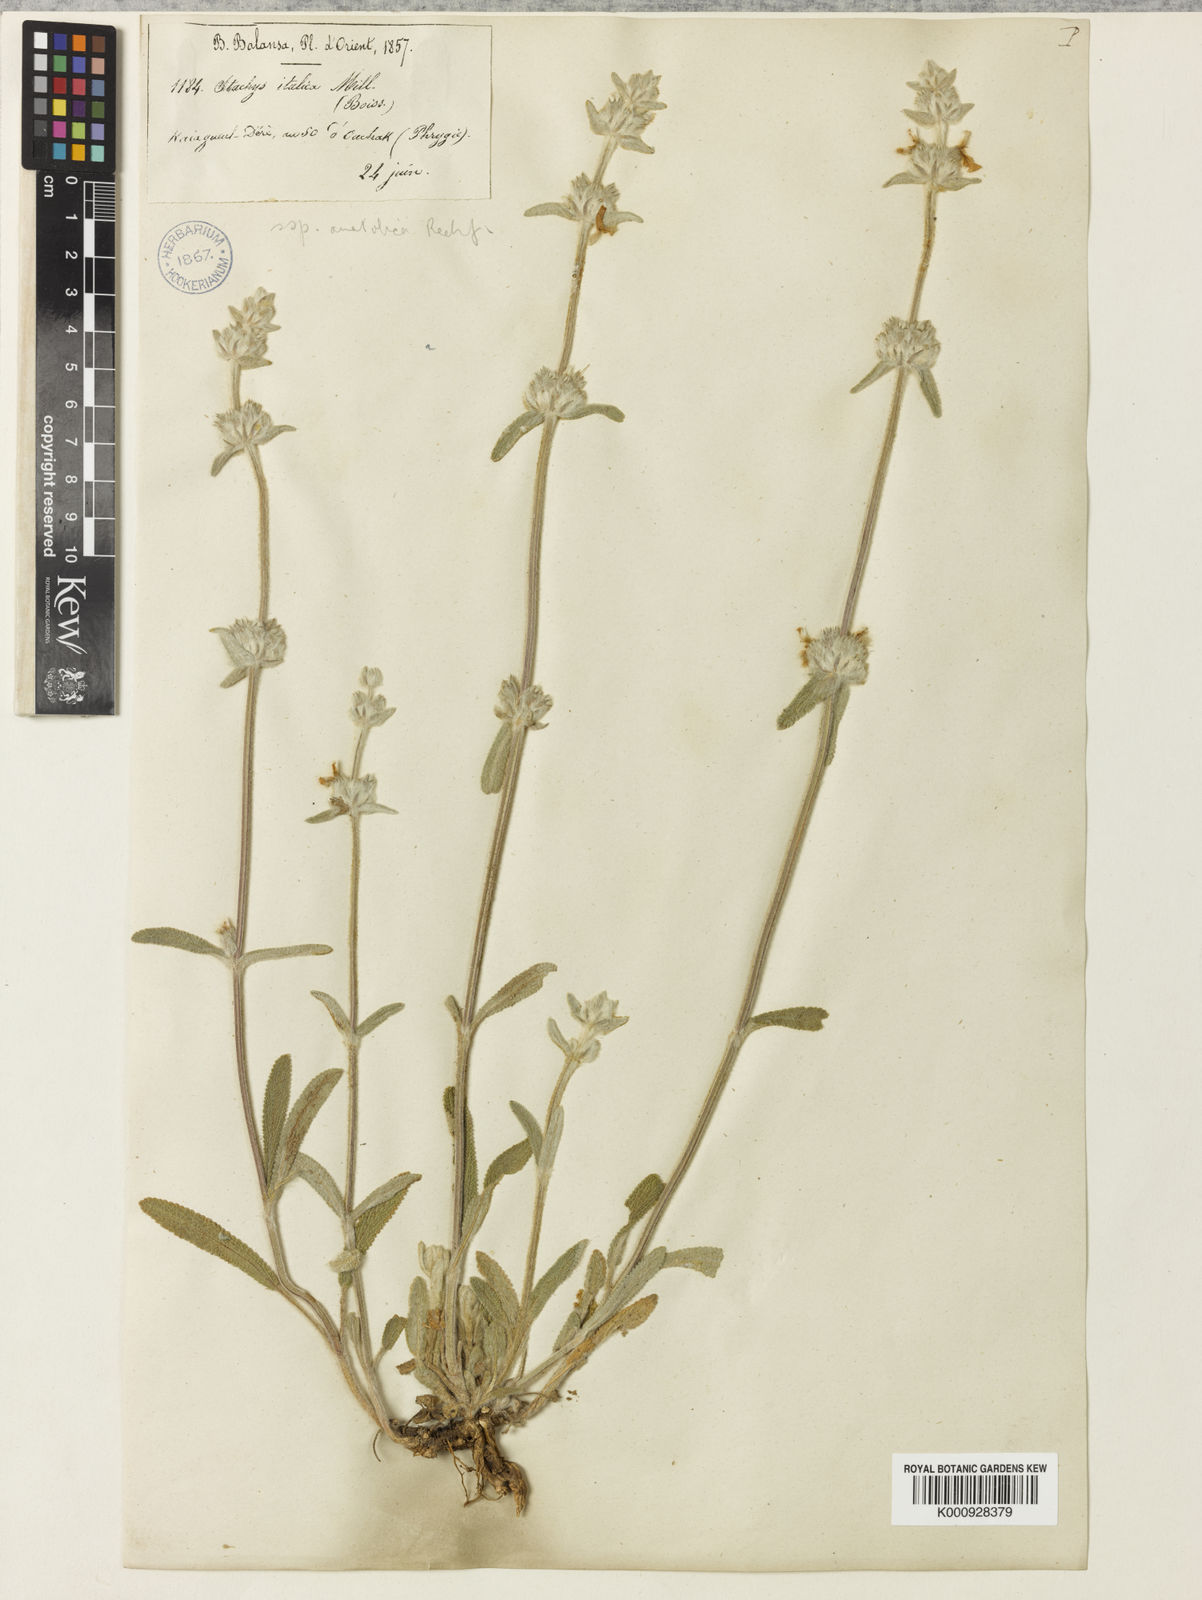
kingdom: Plantae
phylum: Tracheophyta
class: Magnoliopsida
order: Lamiales
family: Lamiaceae
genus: Stachys
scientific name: Stachys cretica
